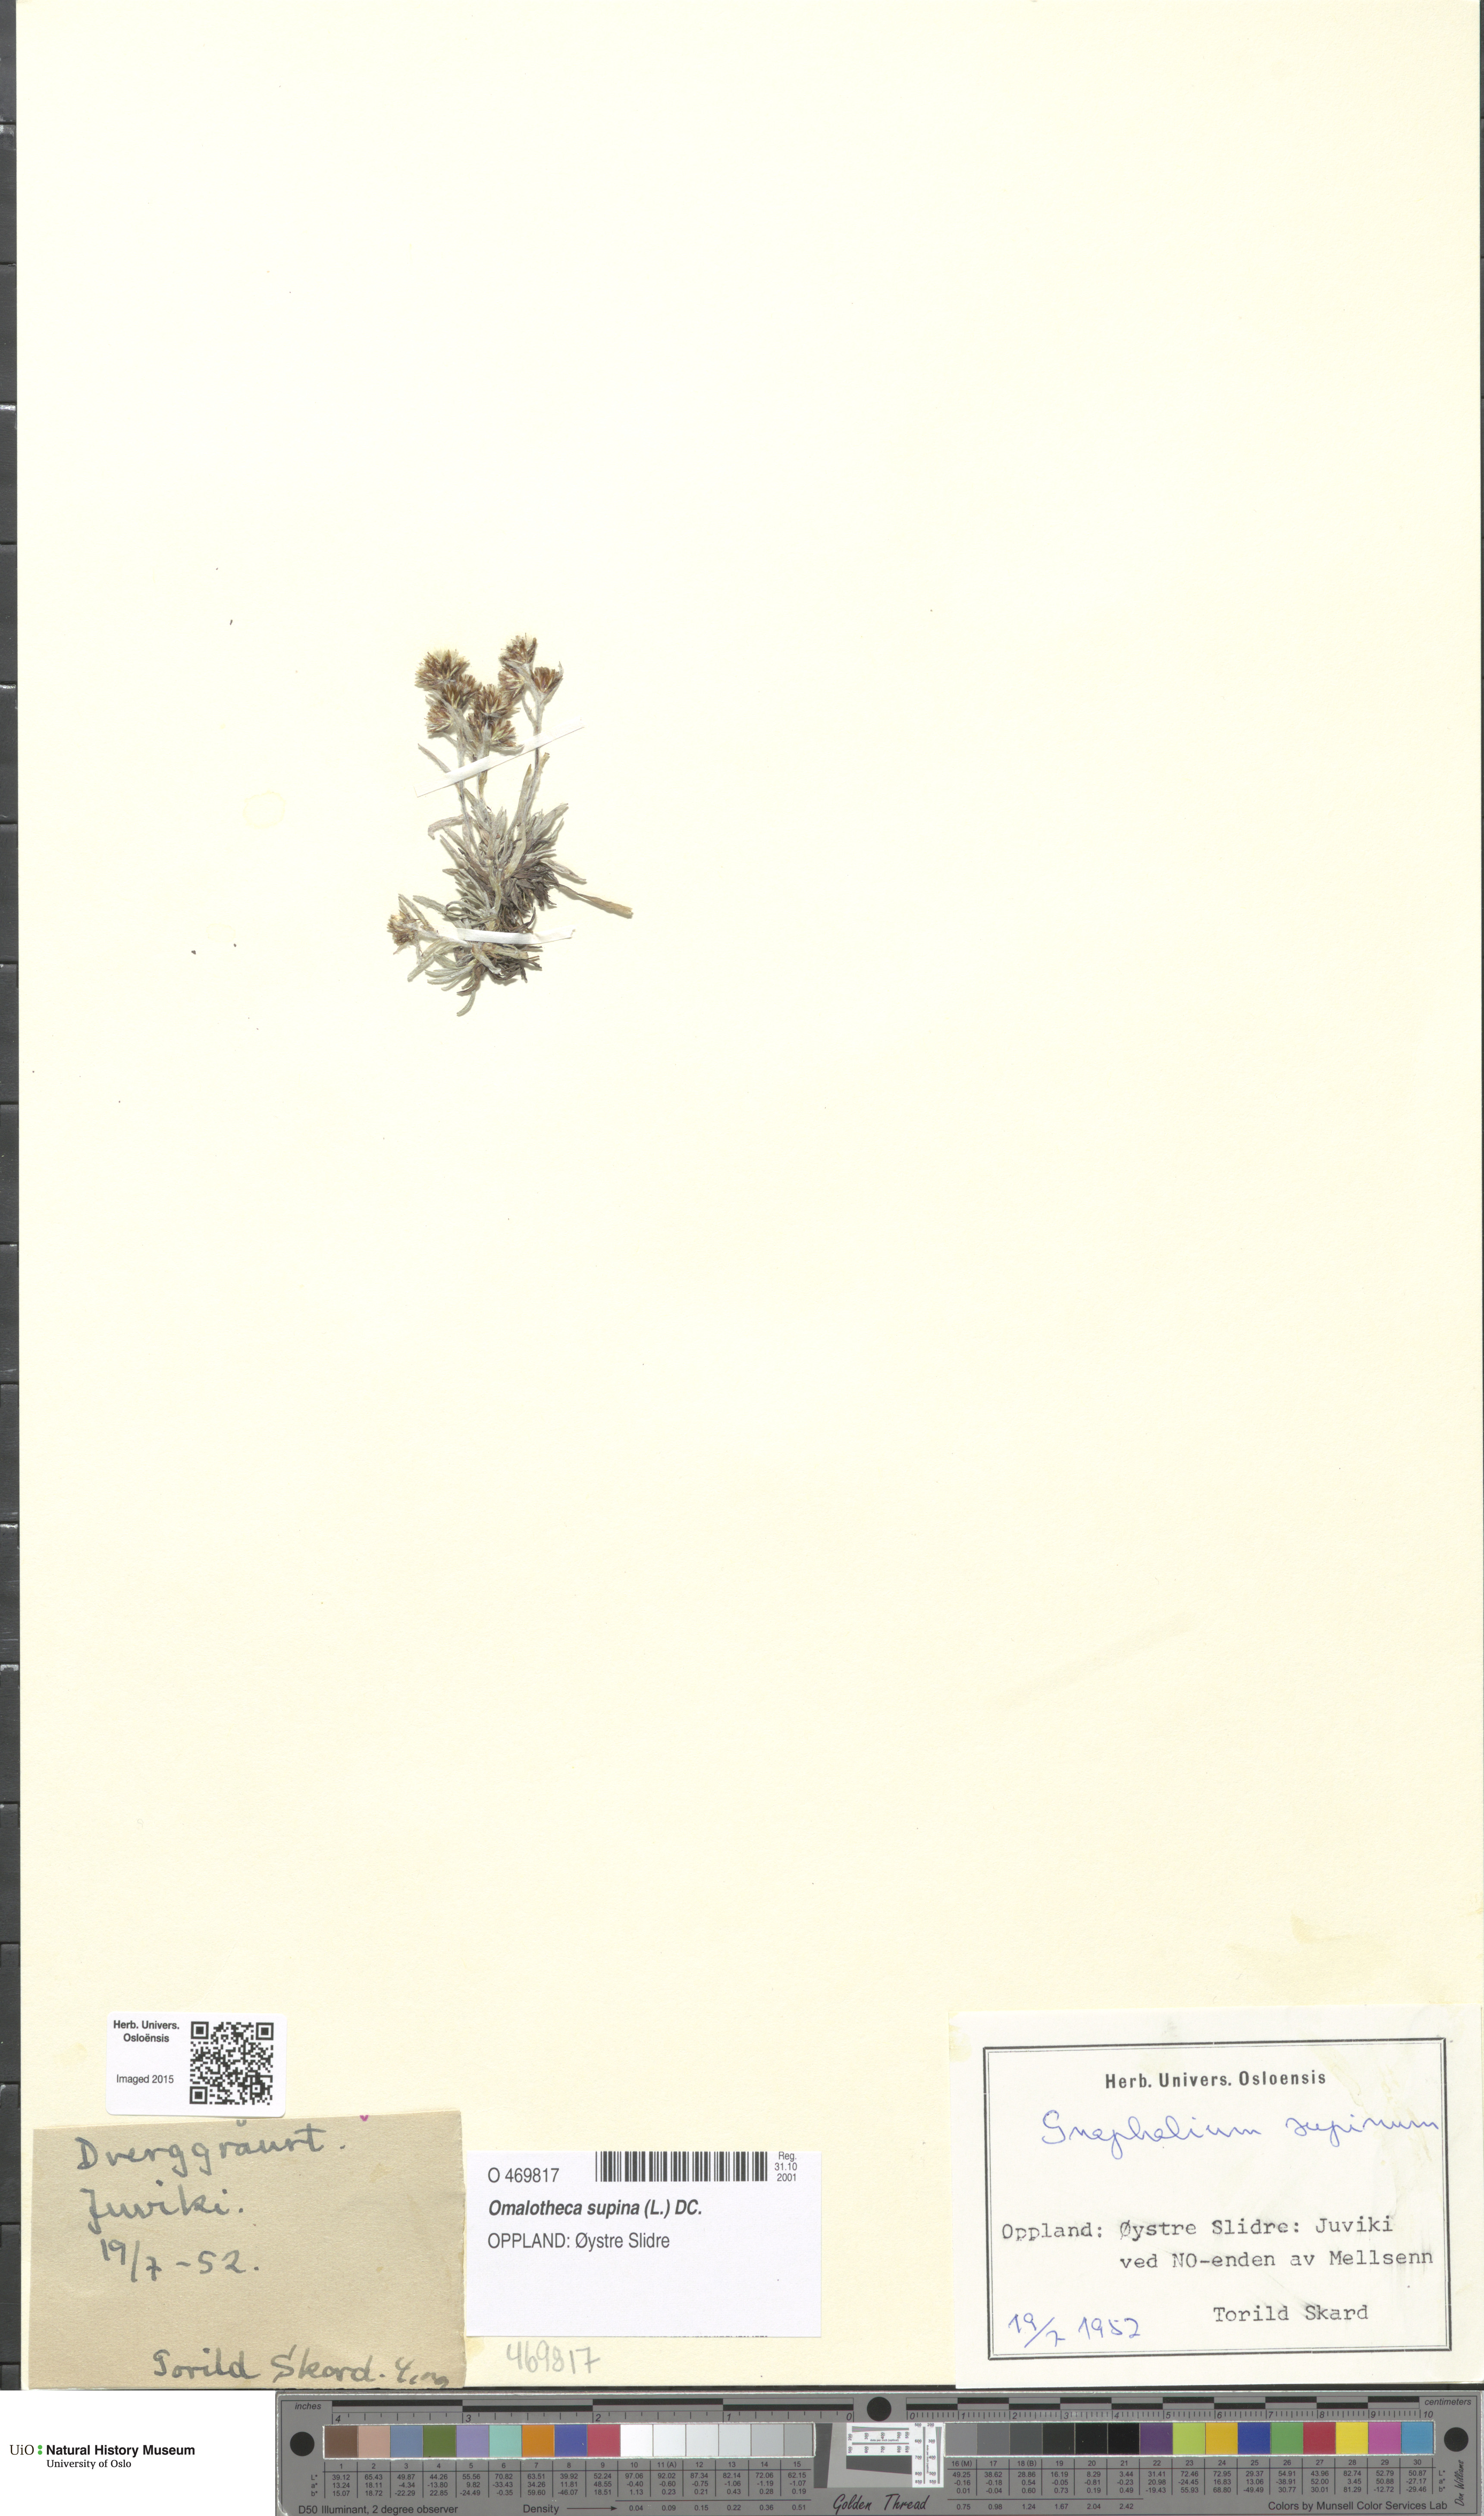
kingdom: Plantae
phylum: Tracheophyta
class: Magnoliopsida
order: Asterales
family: Asteraceae
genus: Omalotheca
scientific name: Omalotheca supina
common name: Alpine arctic-cudweed
